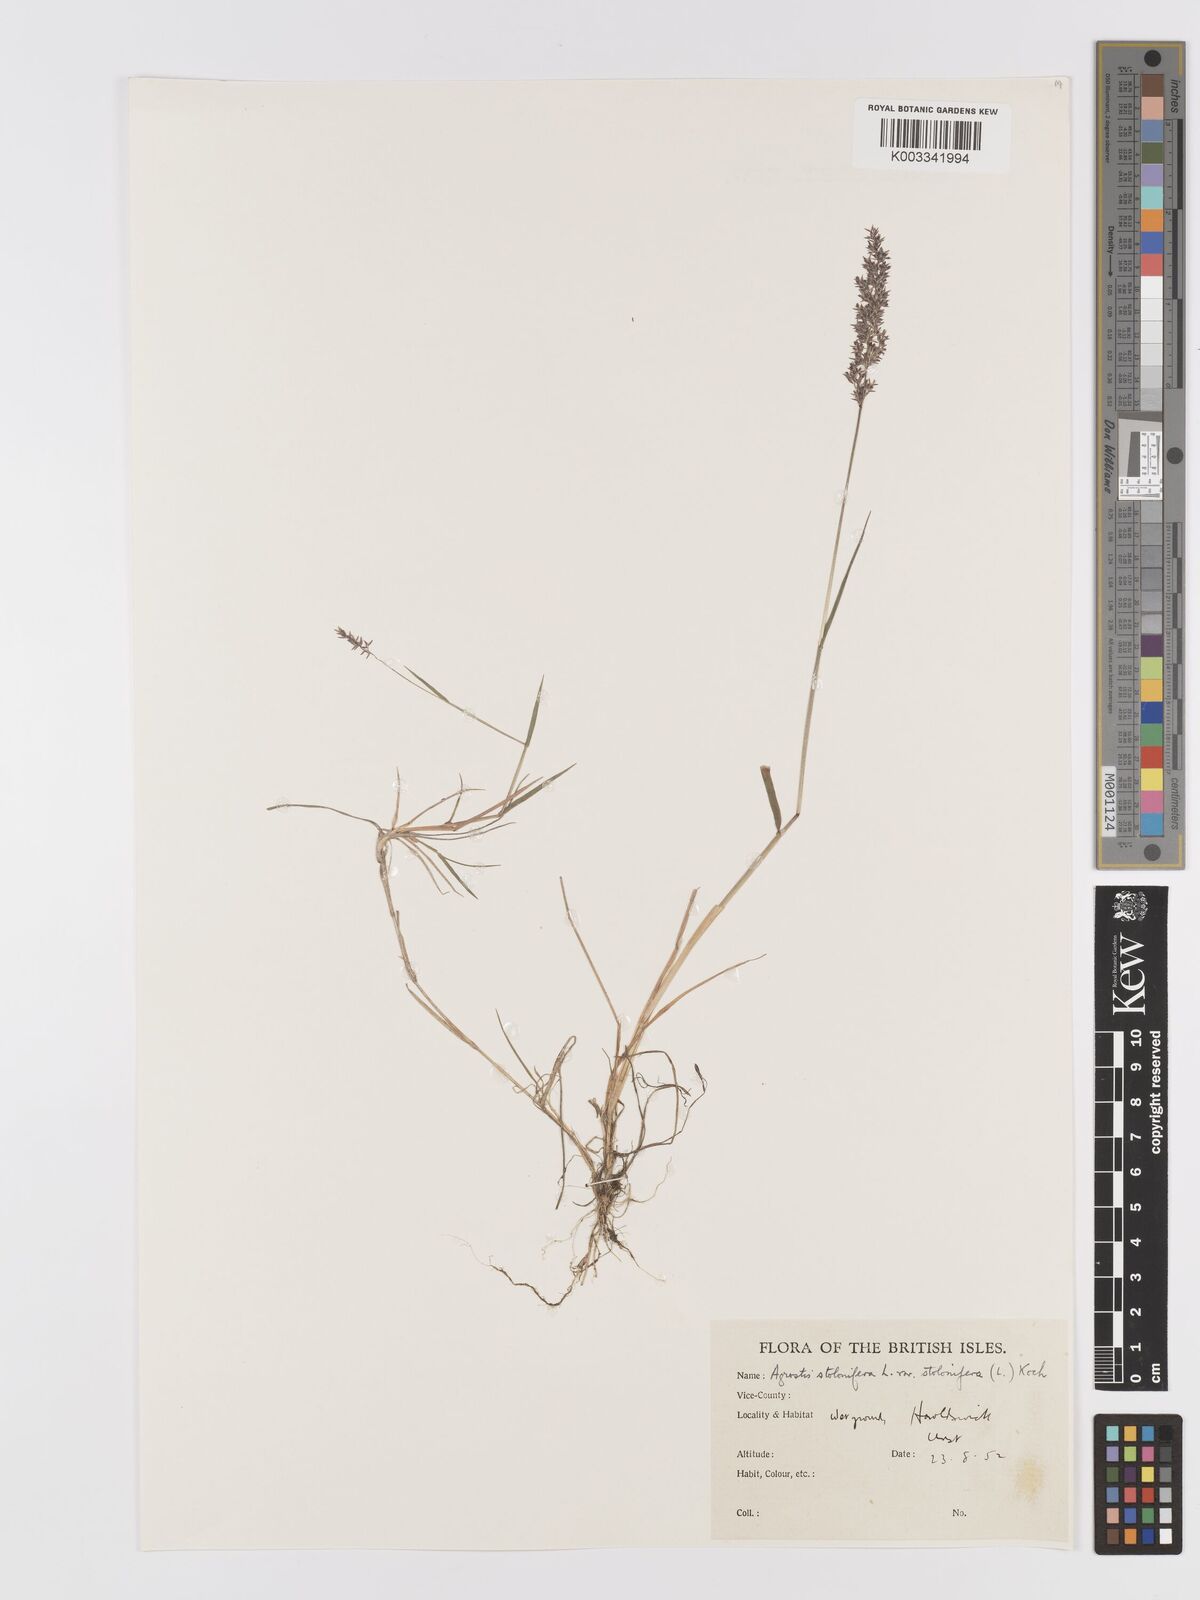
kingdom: Plantae
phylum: Tracheophyta
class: Liliopsida
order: Poales
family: Poaceae
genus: Agrostis
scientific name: Agrostis stolonifera
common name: Creeping bentgrass
